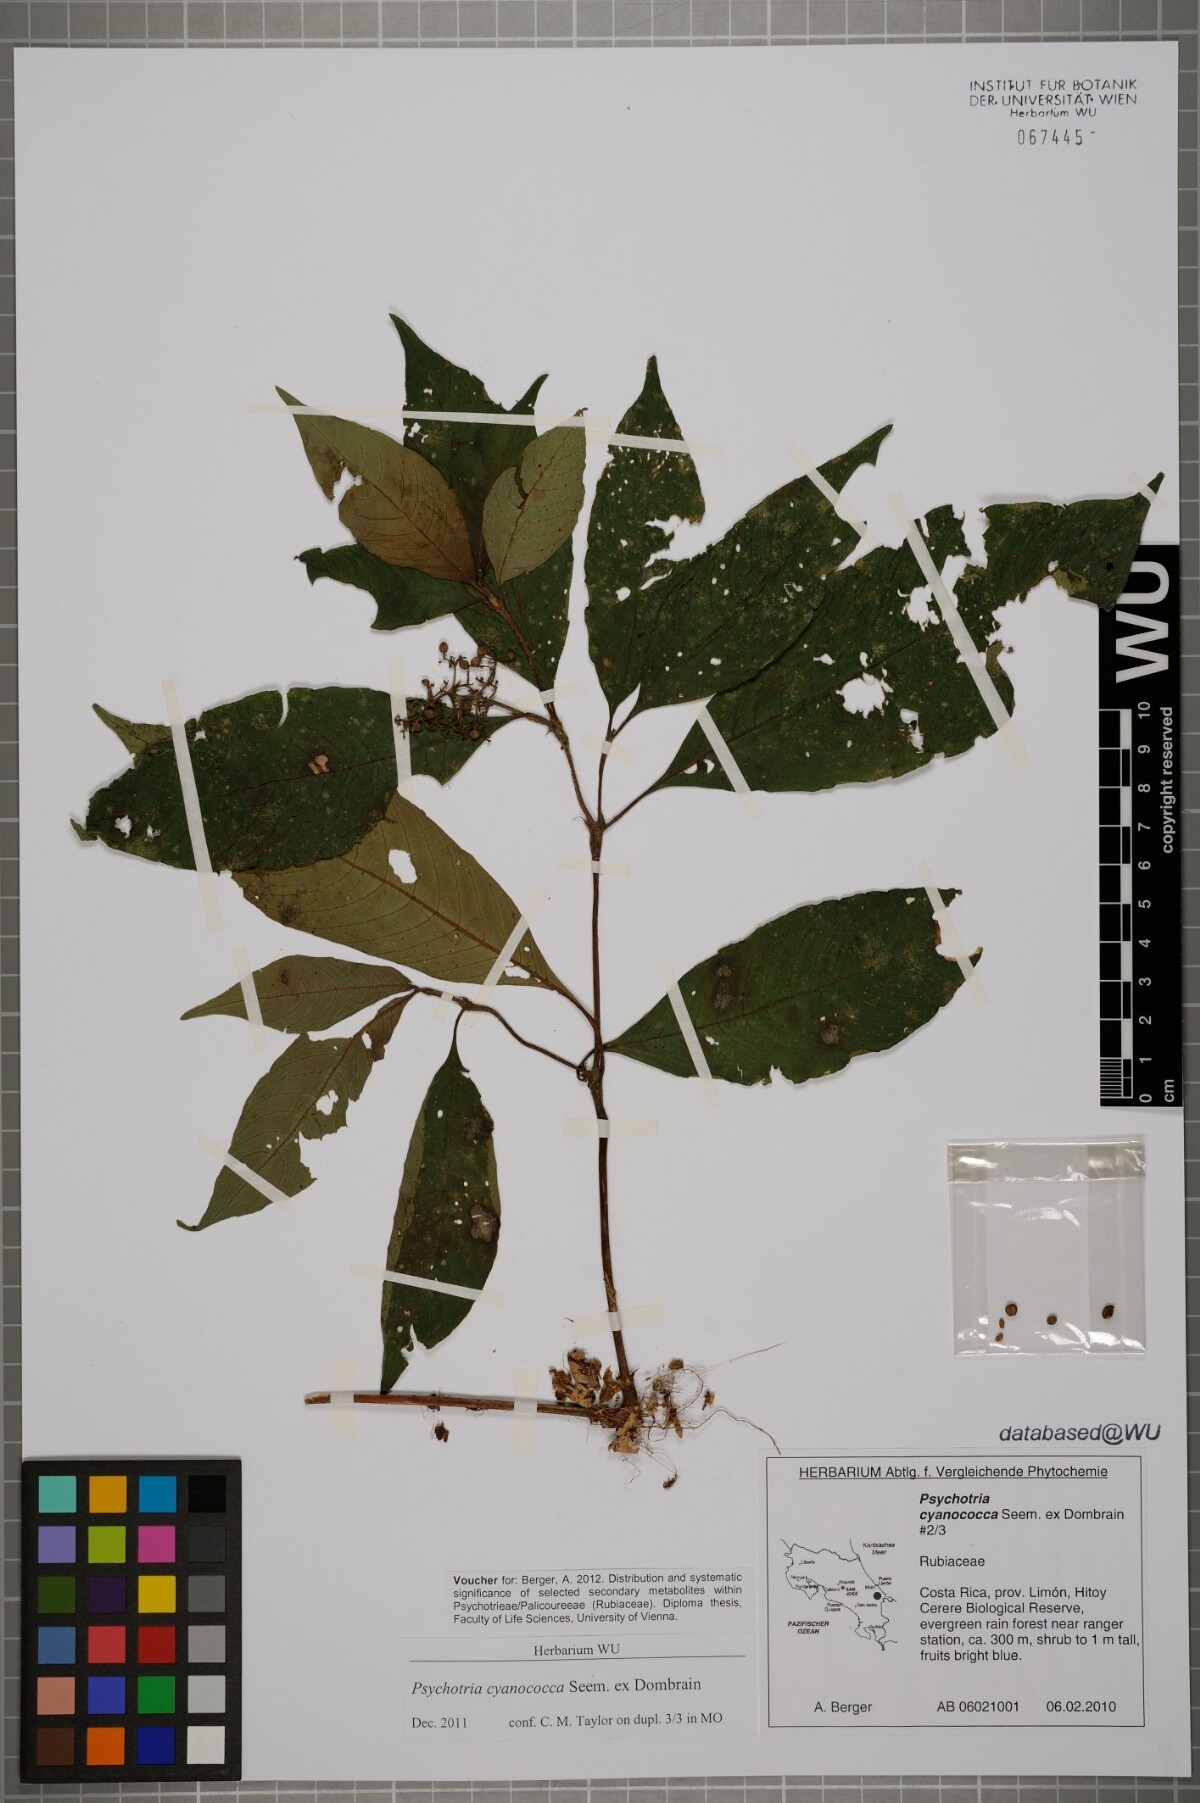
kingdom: Plantae
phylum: Tracheophyta
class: Magnoliopsida
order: Gentianales
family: Rubiaceae
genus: Palicourea
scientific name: Palicourea cyanococca
